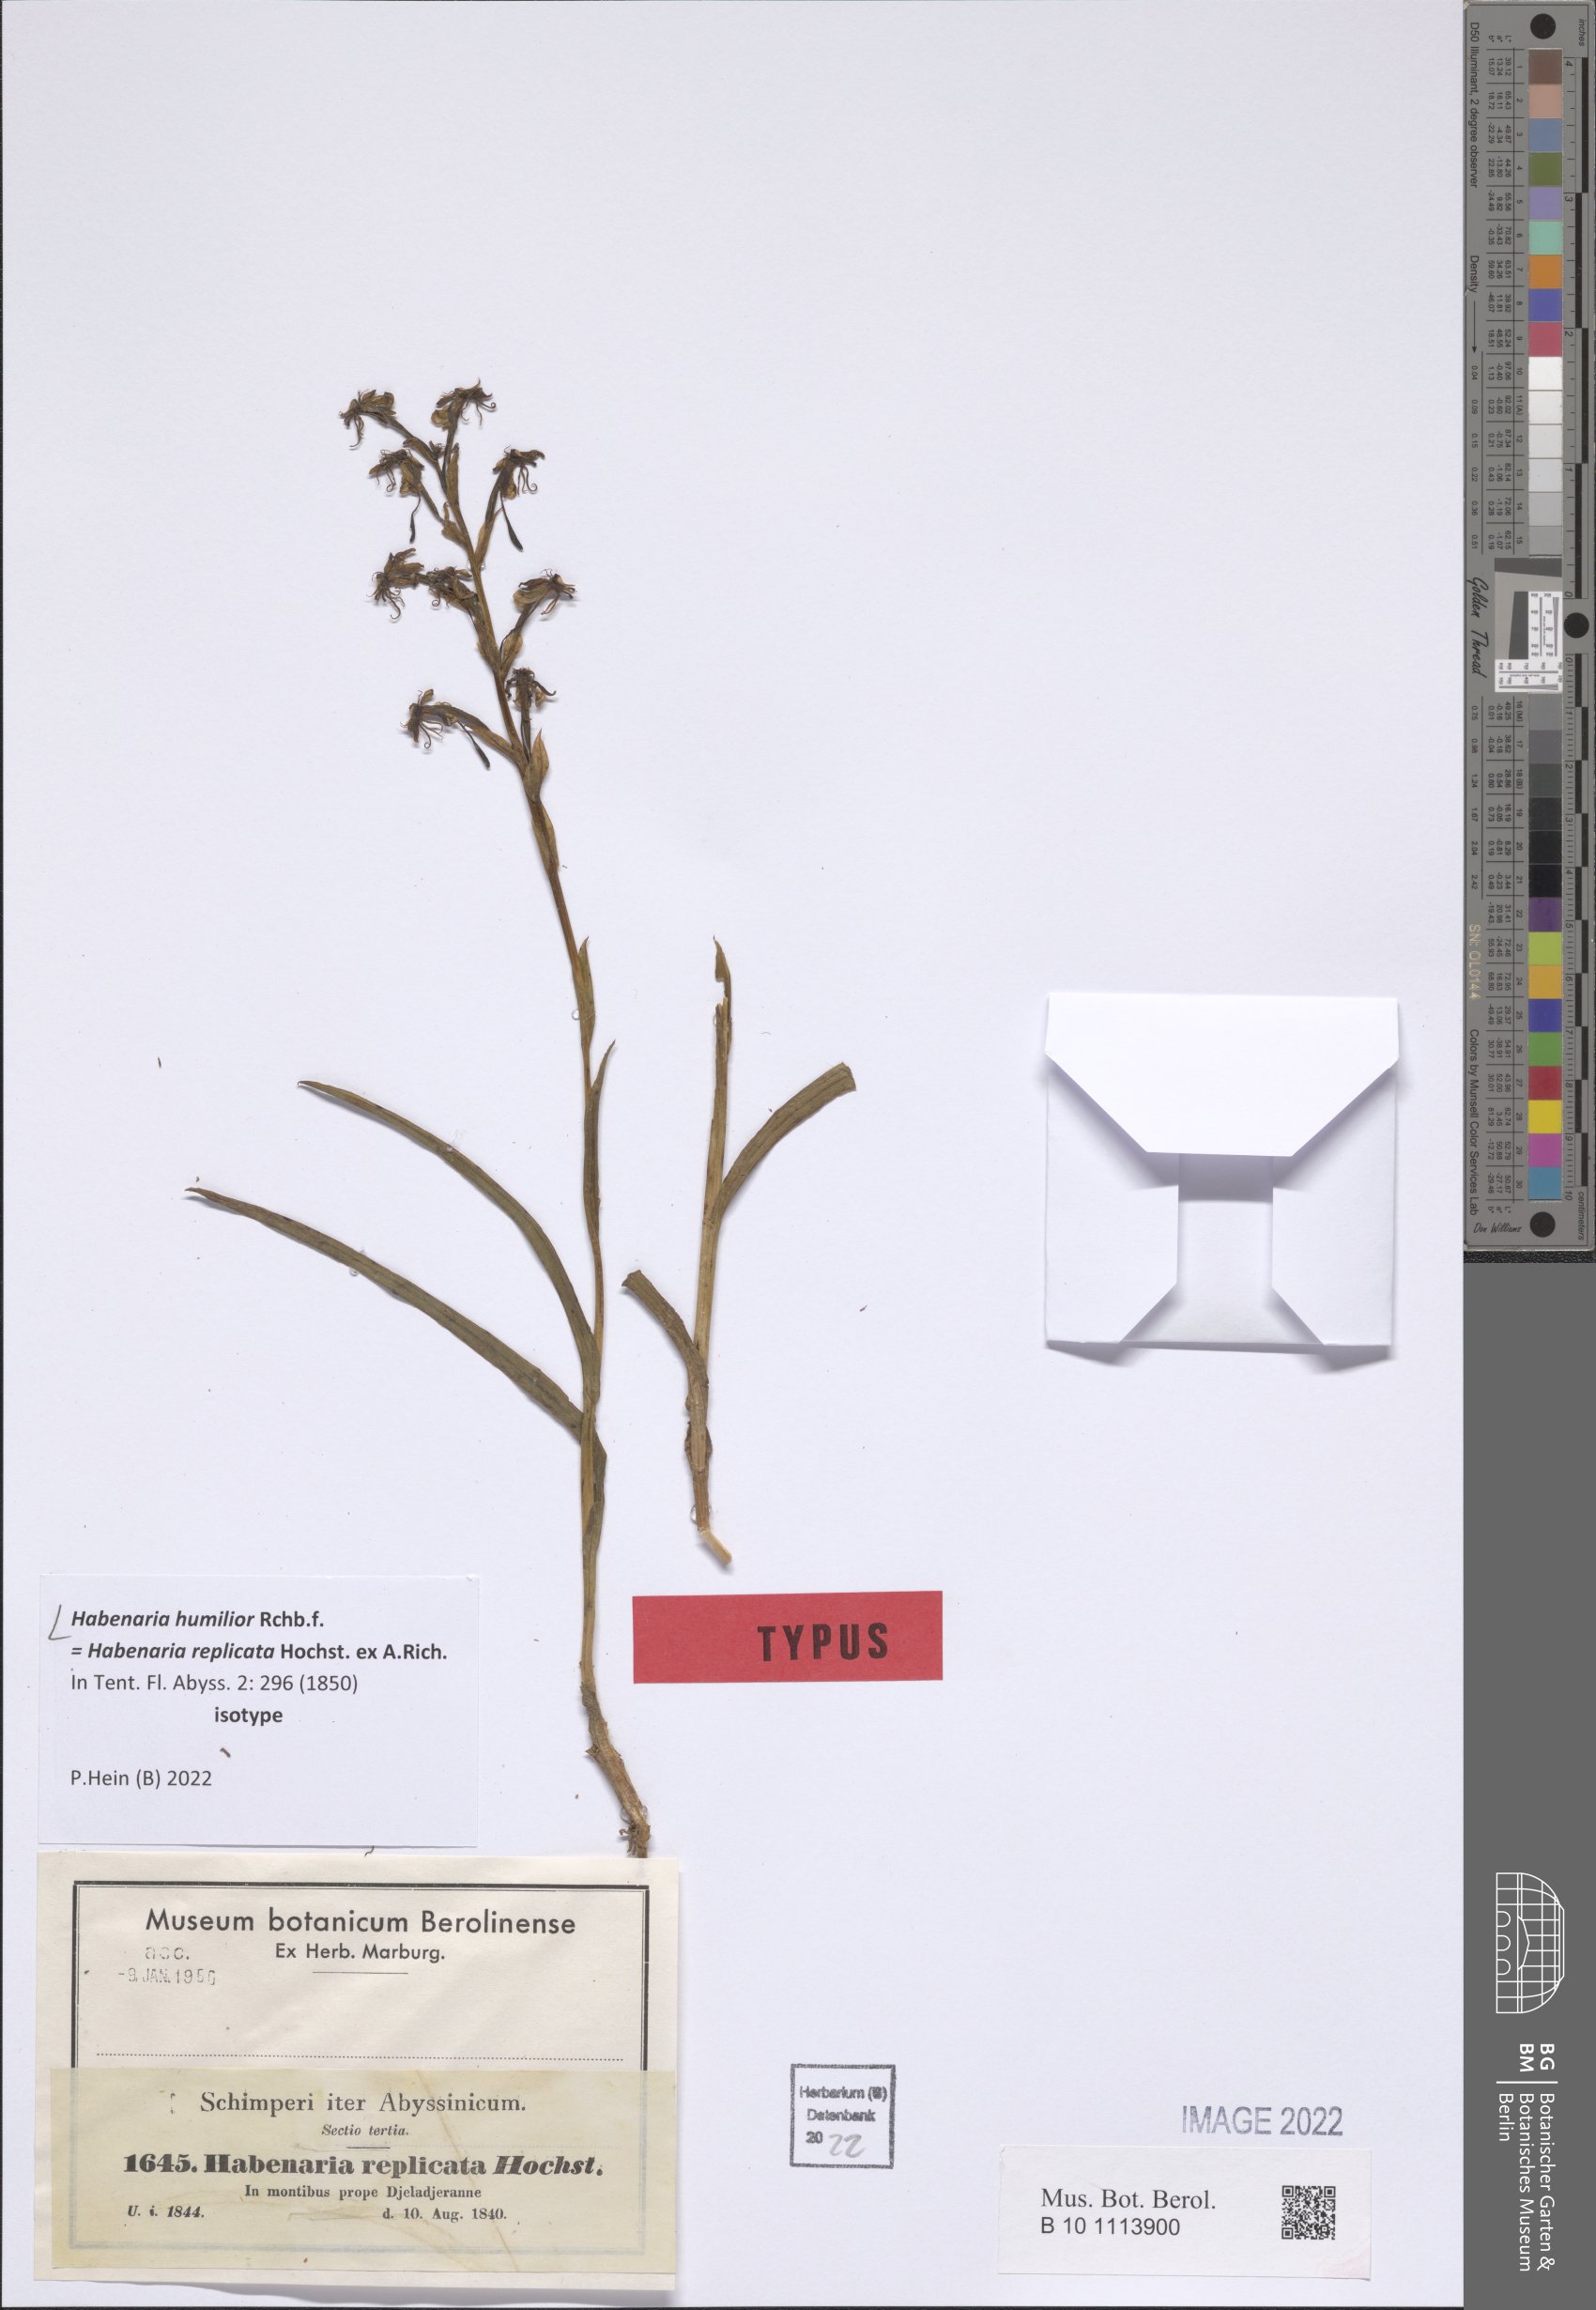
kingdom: Plantae
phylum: Tracheophyta
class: Liliopsida
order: Asparagales
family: Orchidaceae
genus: Habenaria
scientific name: Habenaria humilior
